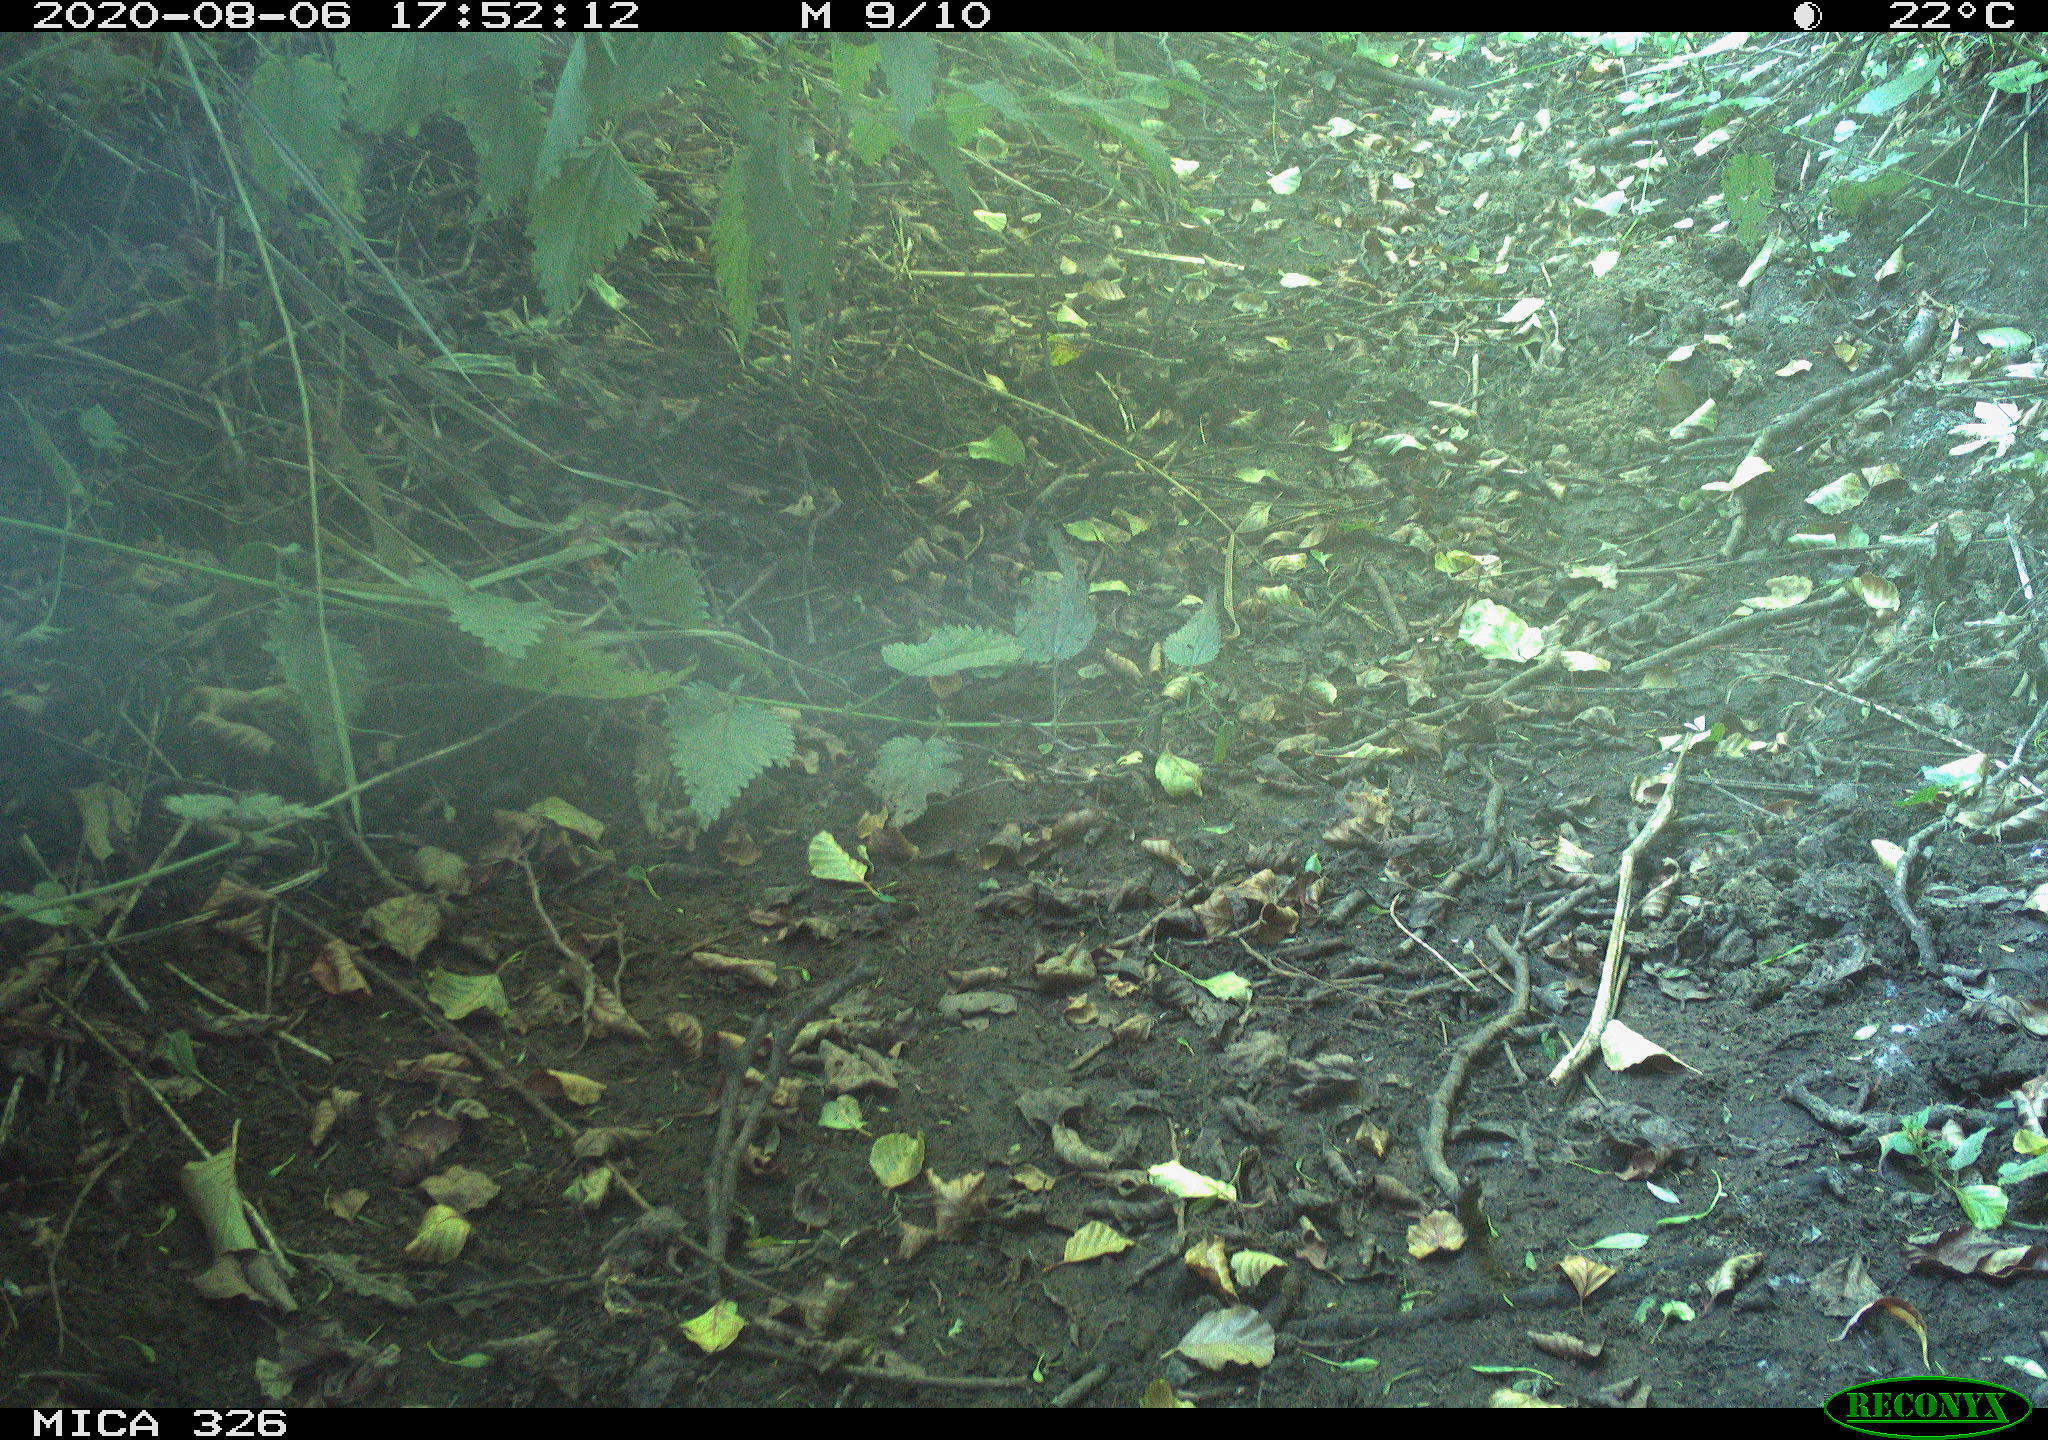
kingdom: Animalia
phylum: Chordata
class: Aves
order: Passeriformes
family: Muscicapidae
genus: Erithacus
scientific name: Erithacus rubecula
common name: European robin
